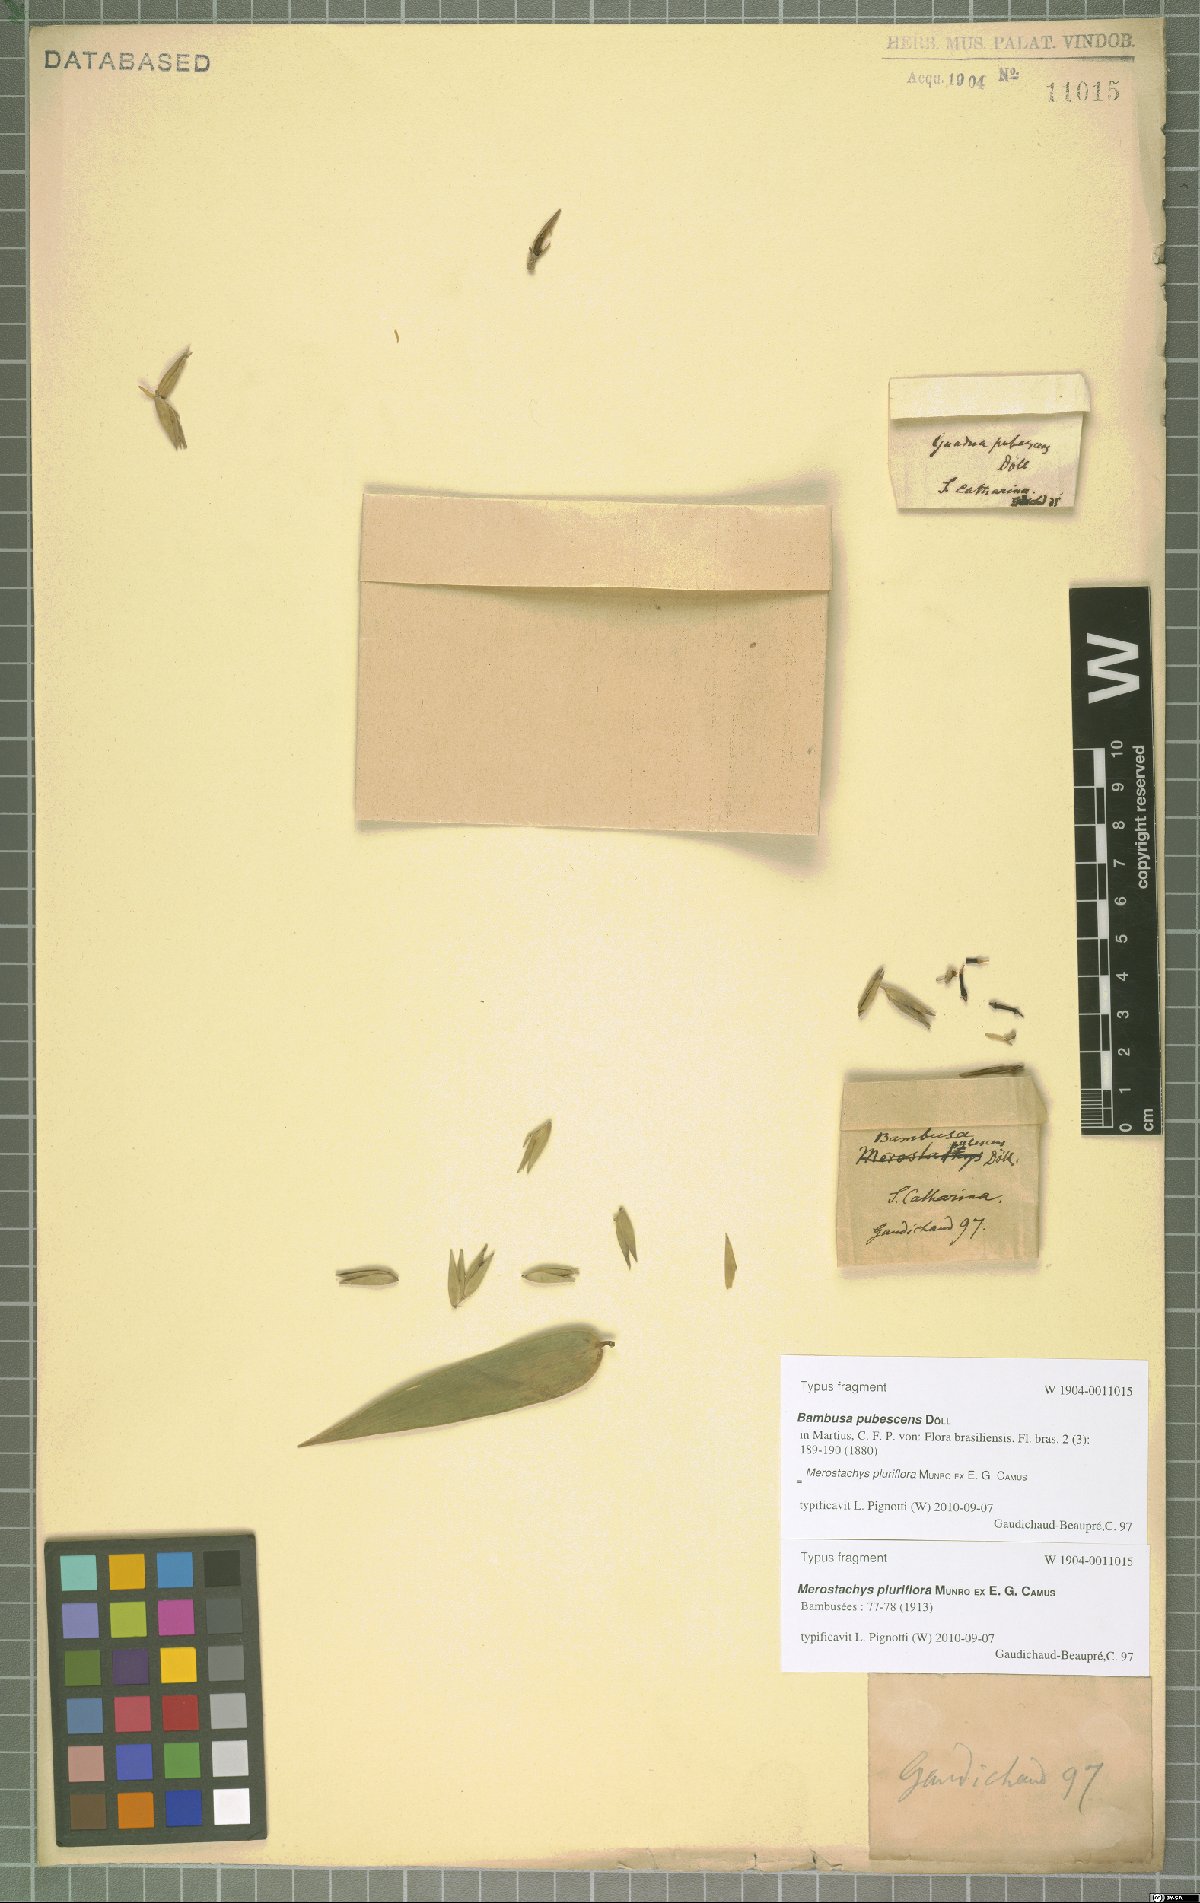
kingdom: Plantae
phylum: Tracheophyta
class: Liliopsida
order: Poales
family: Poaceae
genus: Merostachys
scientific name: Merostachys pluriflora
